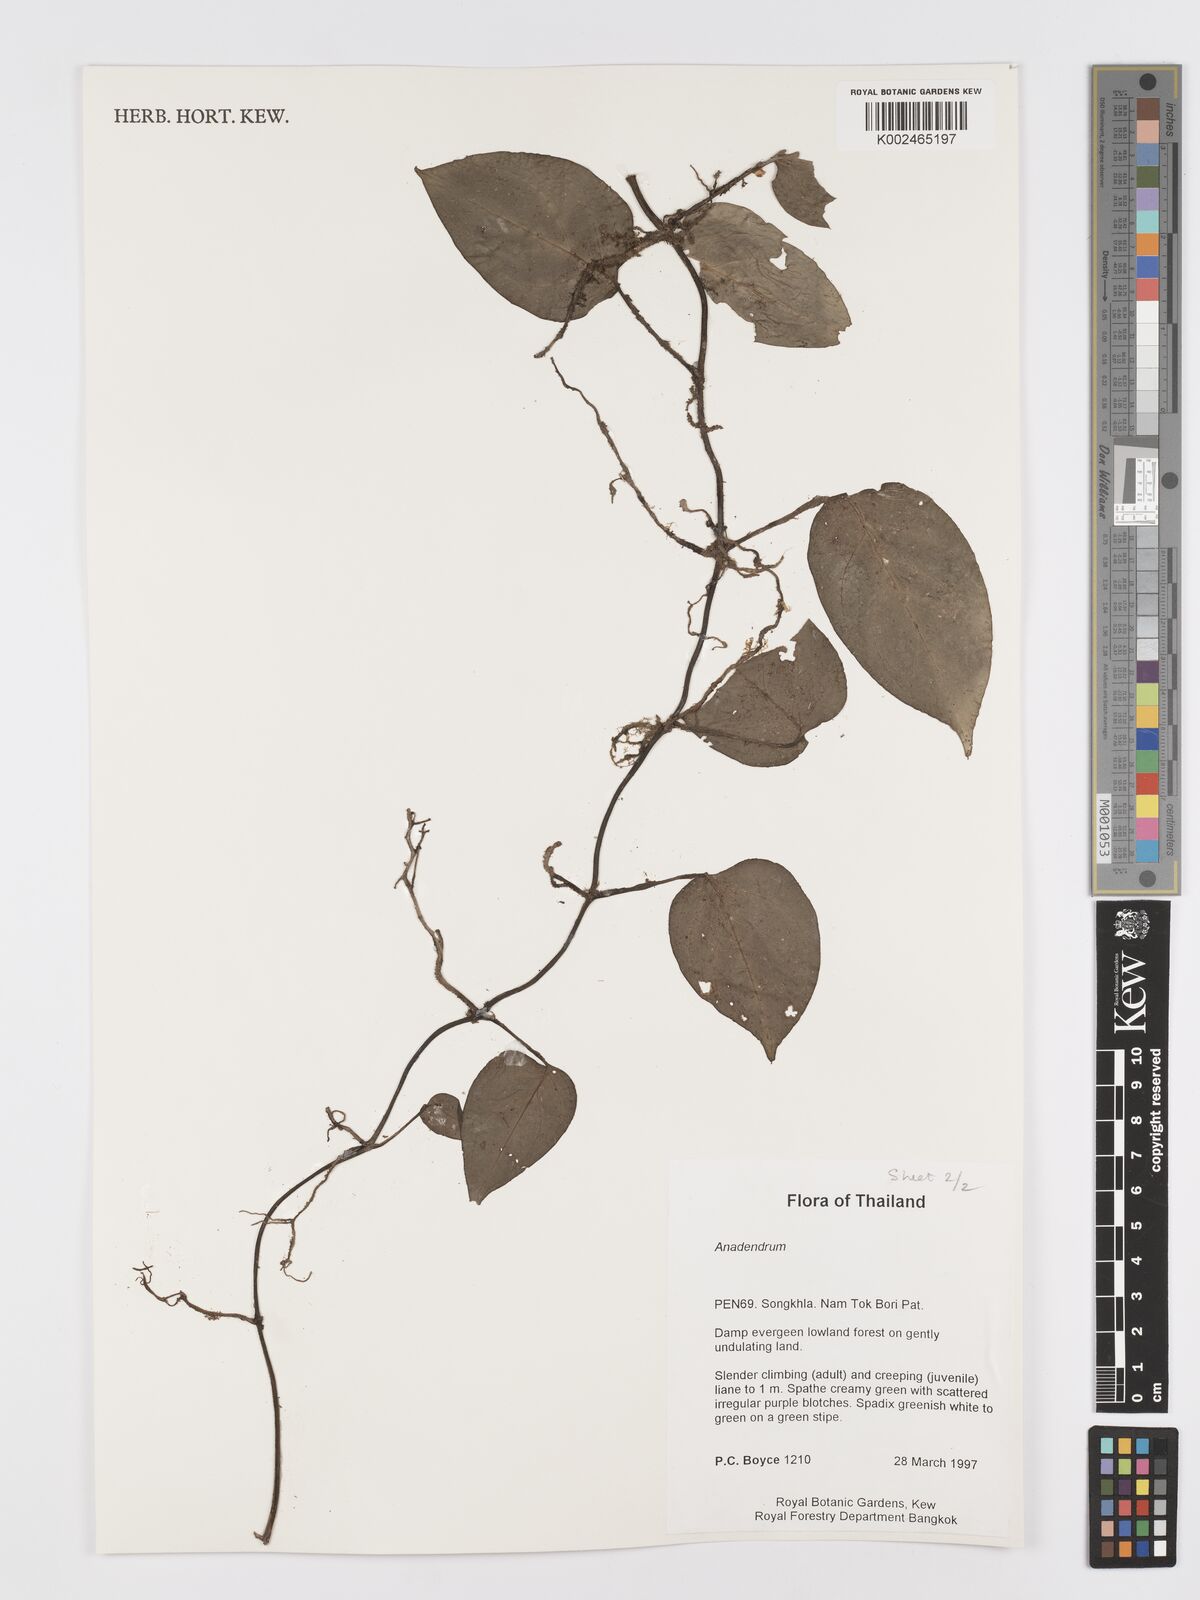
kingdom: Plantae
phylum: Tracheophyta
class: Liliopsida
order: Alismatales
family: Araceae
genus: Anadendrum
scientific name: Anadendrum
